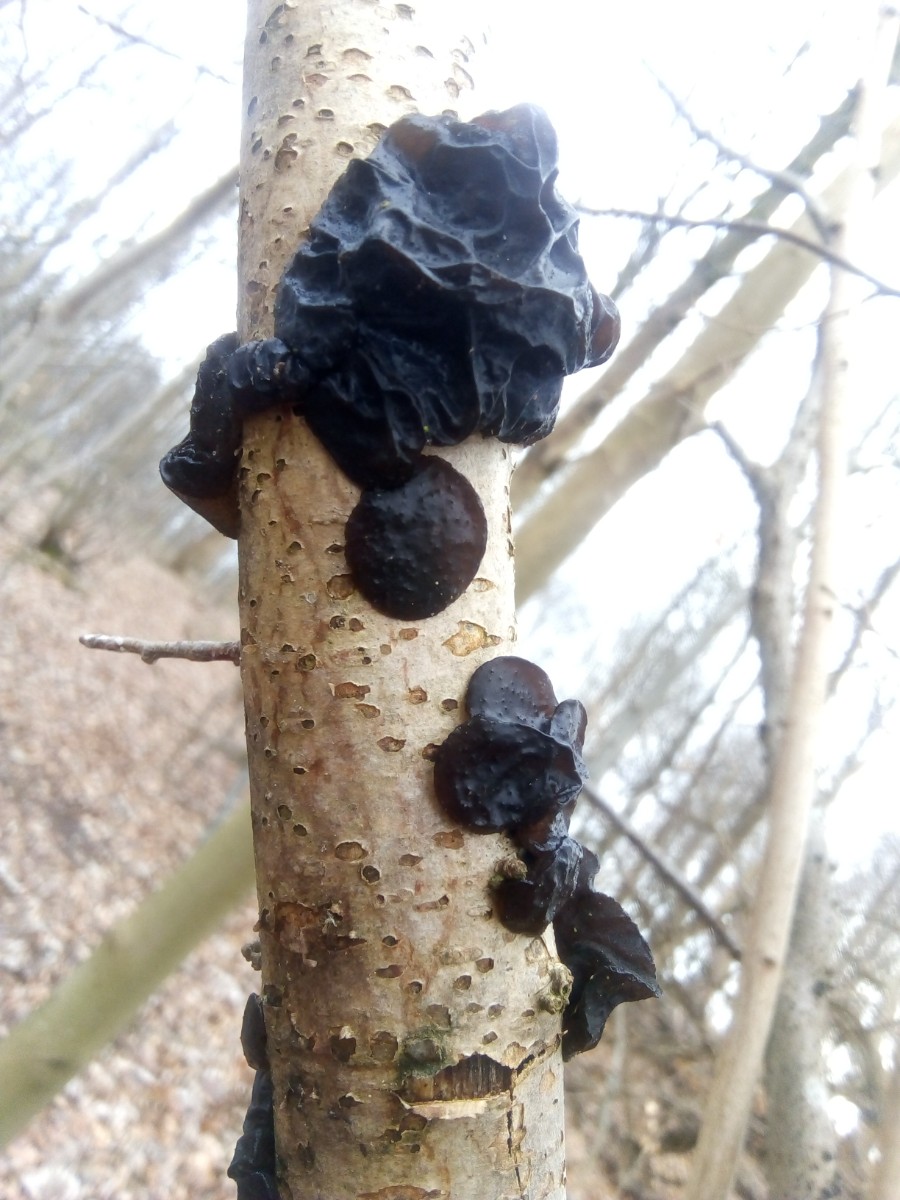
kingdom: Fungi
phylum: Basidiomycota
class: Agaricomycetes
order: Auriculariales
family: Auriculariaceae
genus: Exidia
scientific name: Exidia glandulosa
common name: ege-bævretop
